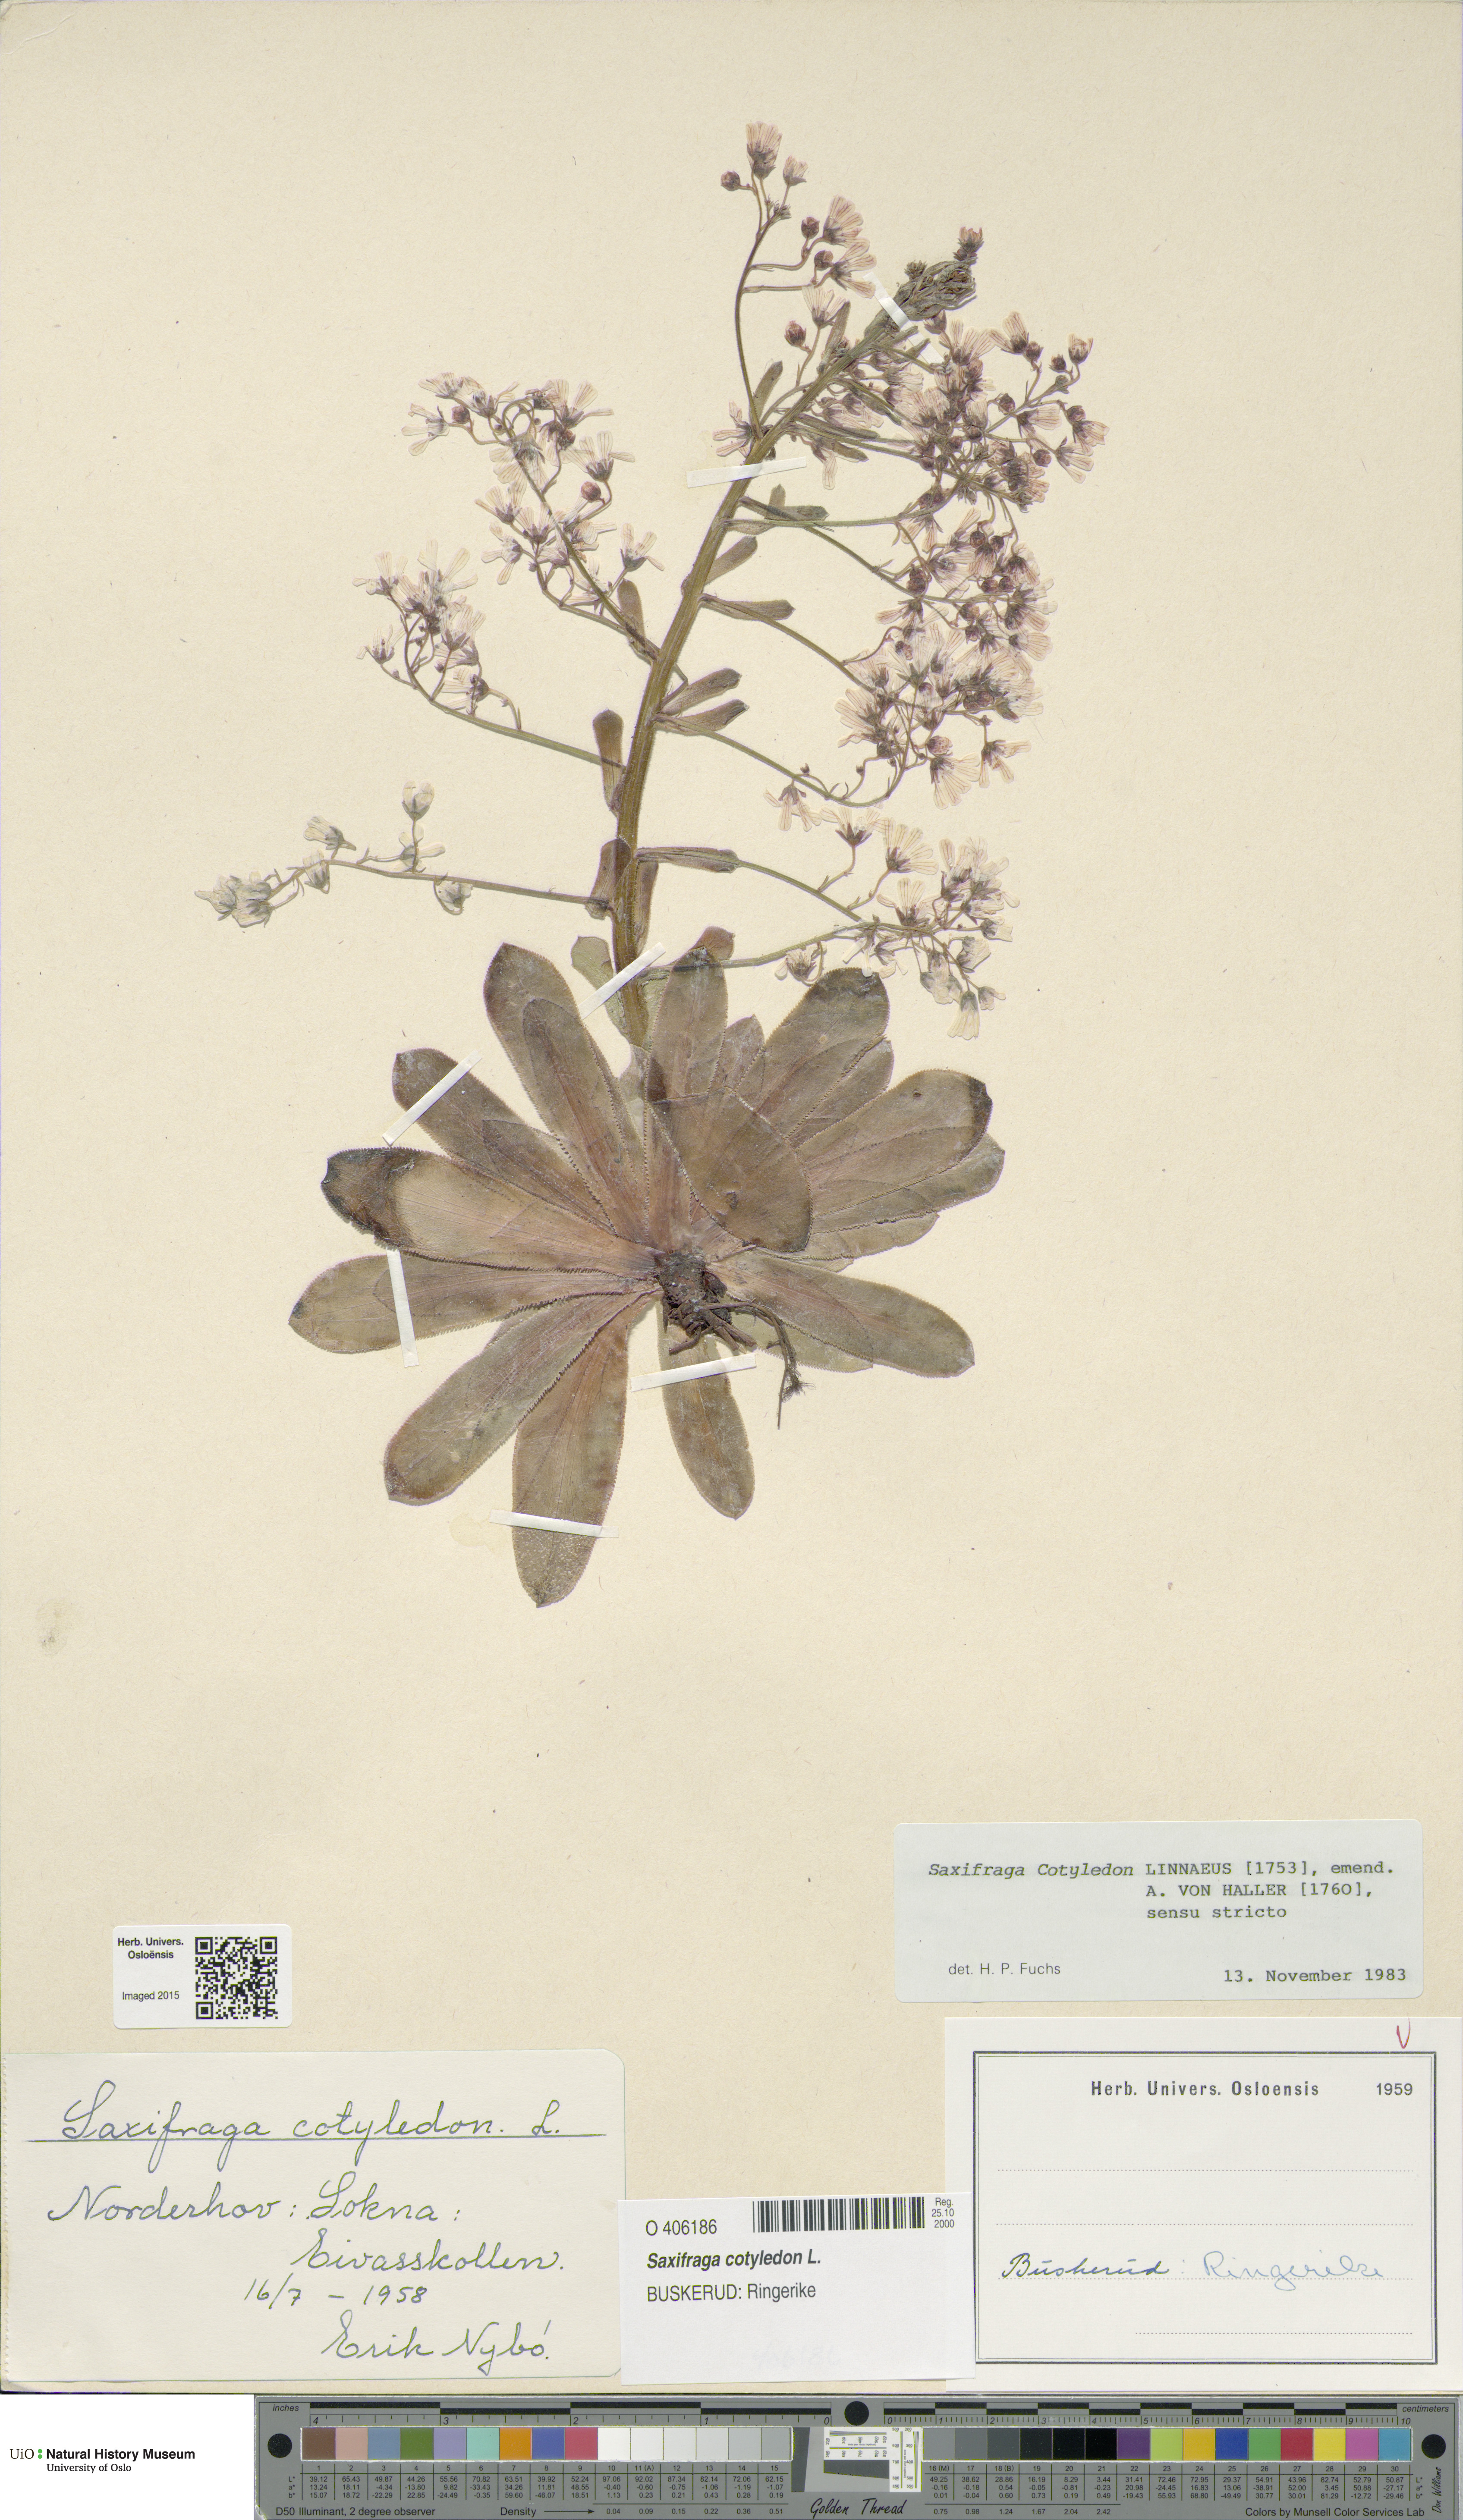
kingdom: Plantae
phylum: Tracheophyta
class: Magnoliopsida
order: Saxifragales
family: Saxifragaceae
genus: Saxifraga
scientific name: Saxifraga cotyledon
